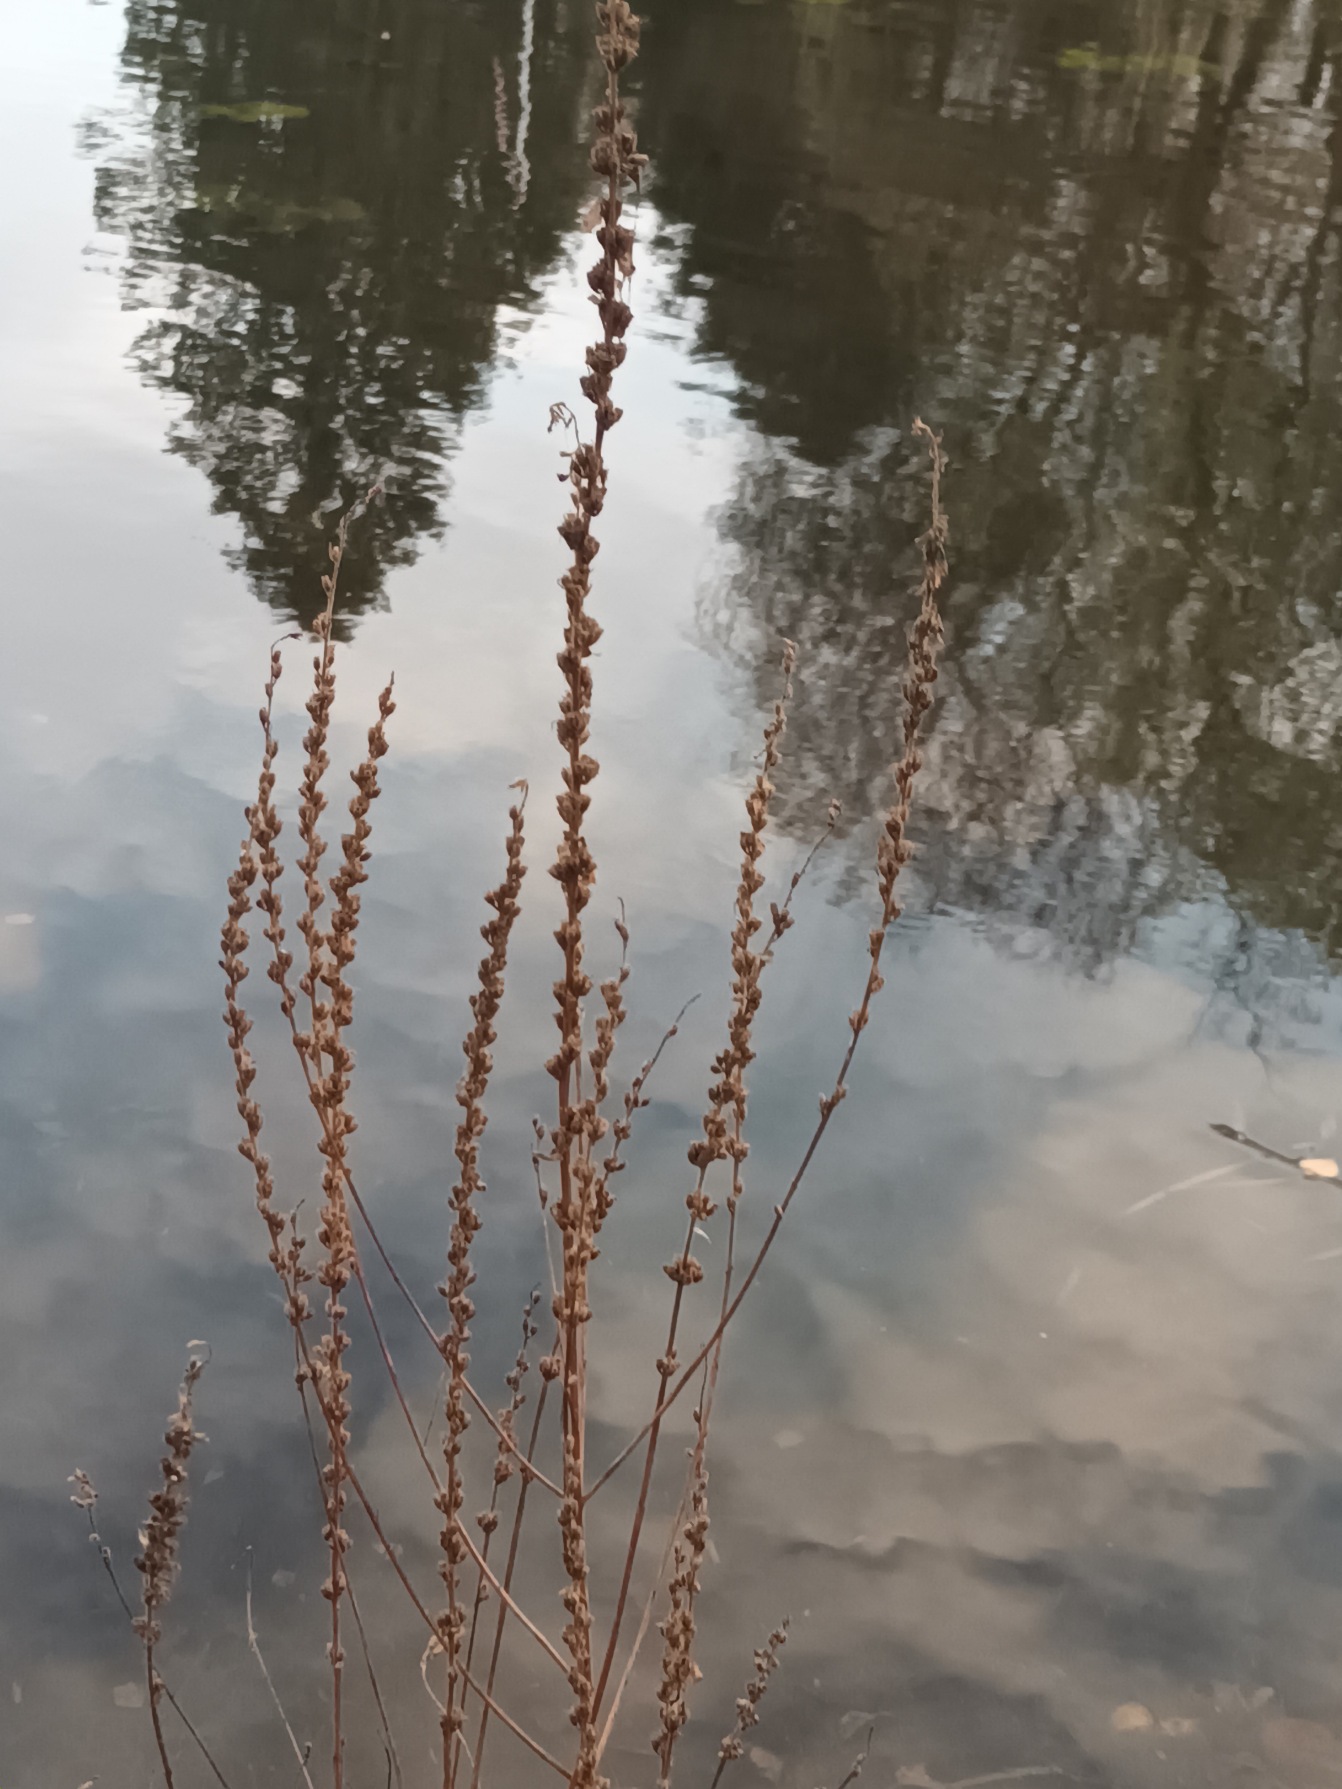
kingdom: Plantae
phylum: Tracheophyta
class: Magnoliopsida
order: Myrtales
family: Lythraceae
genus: Lythrum
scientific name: Lythrum salicaria
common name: Kattehale
